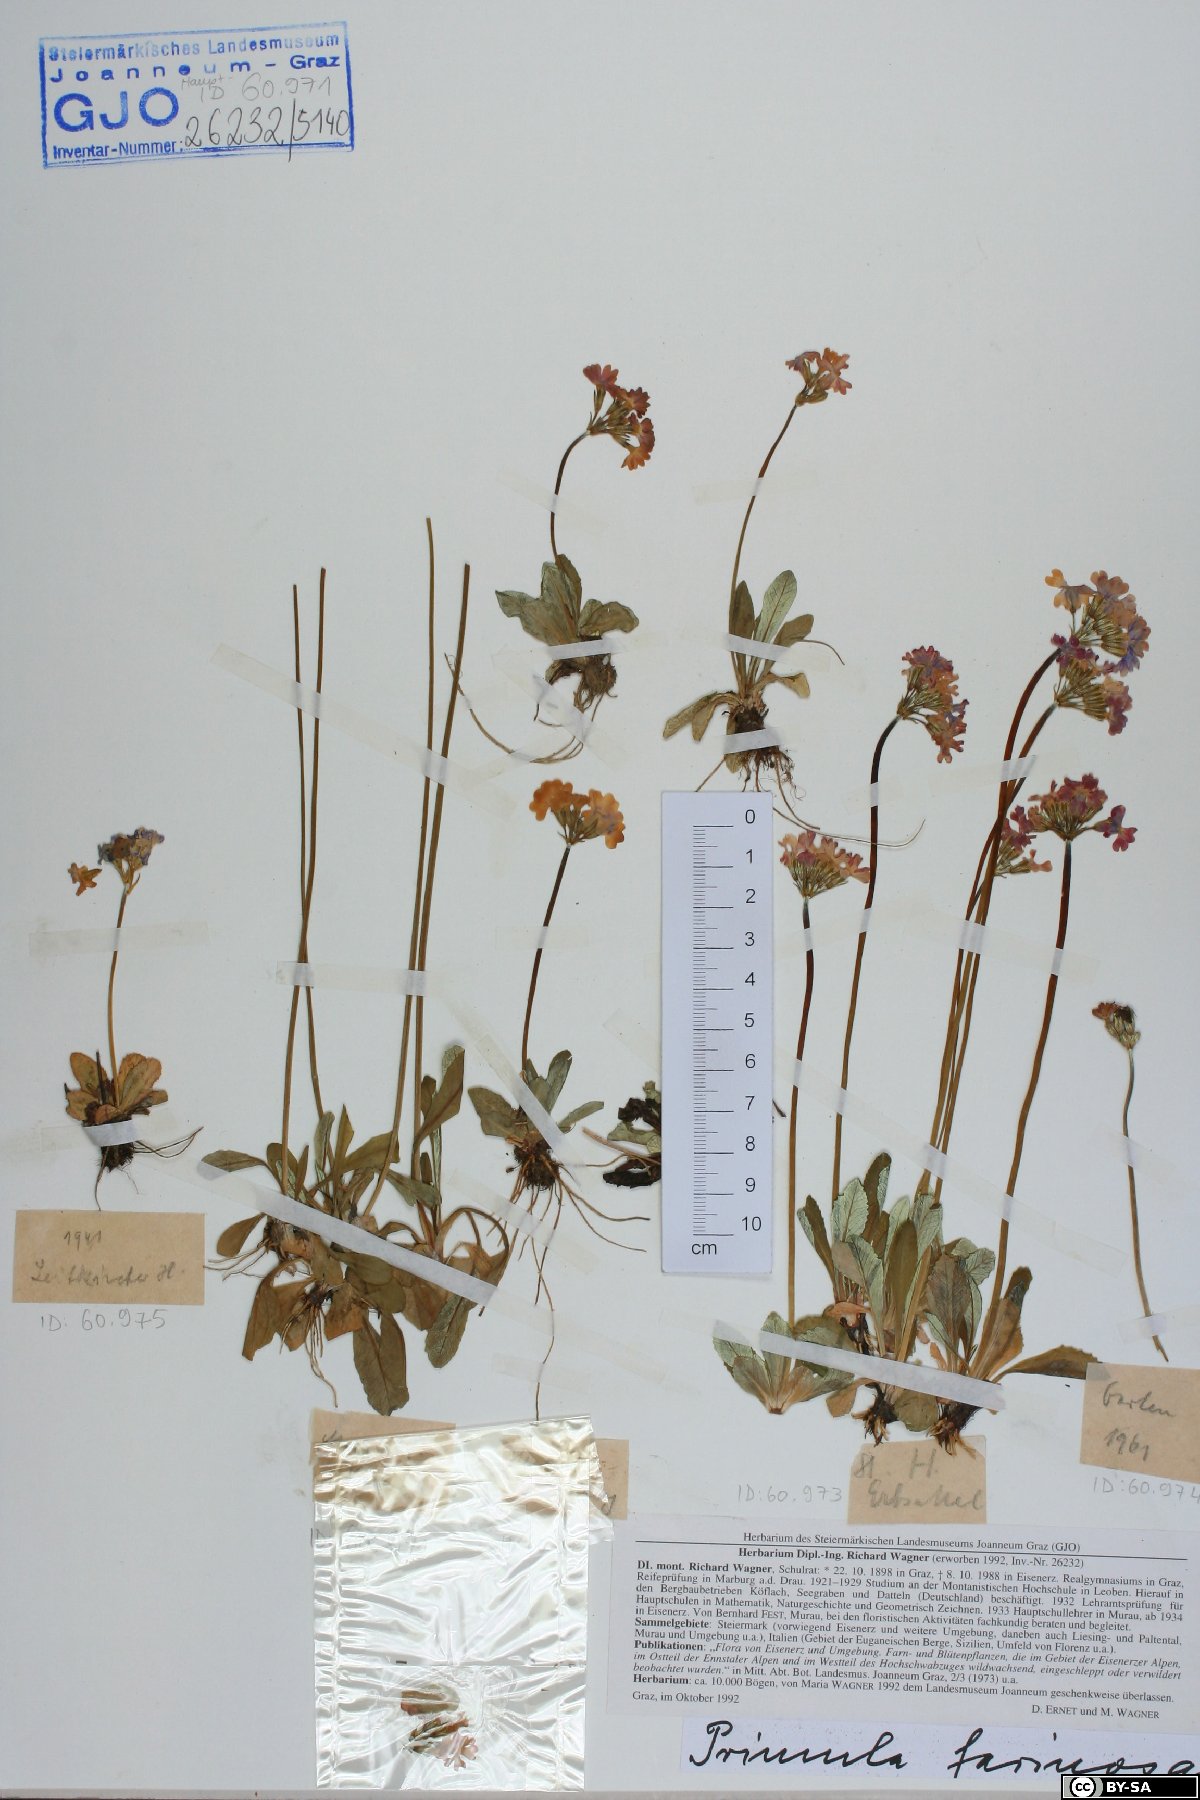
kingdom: Plantae
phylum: Tracheophyta
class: Magnoliopsida
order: Ericales
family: Primulaceae
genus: Primula
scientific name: Primula farinosa
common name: Bird's-eye primrose
